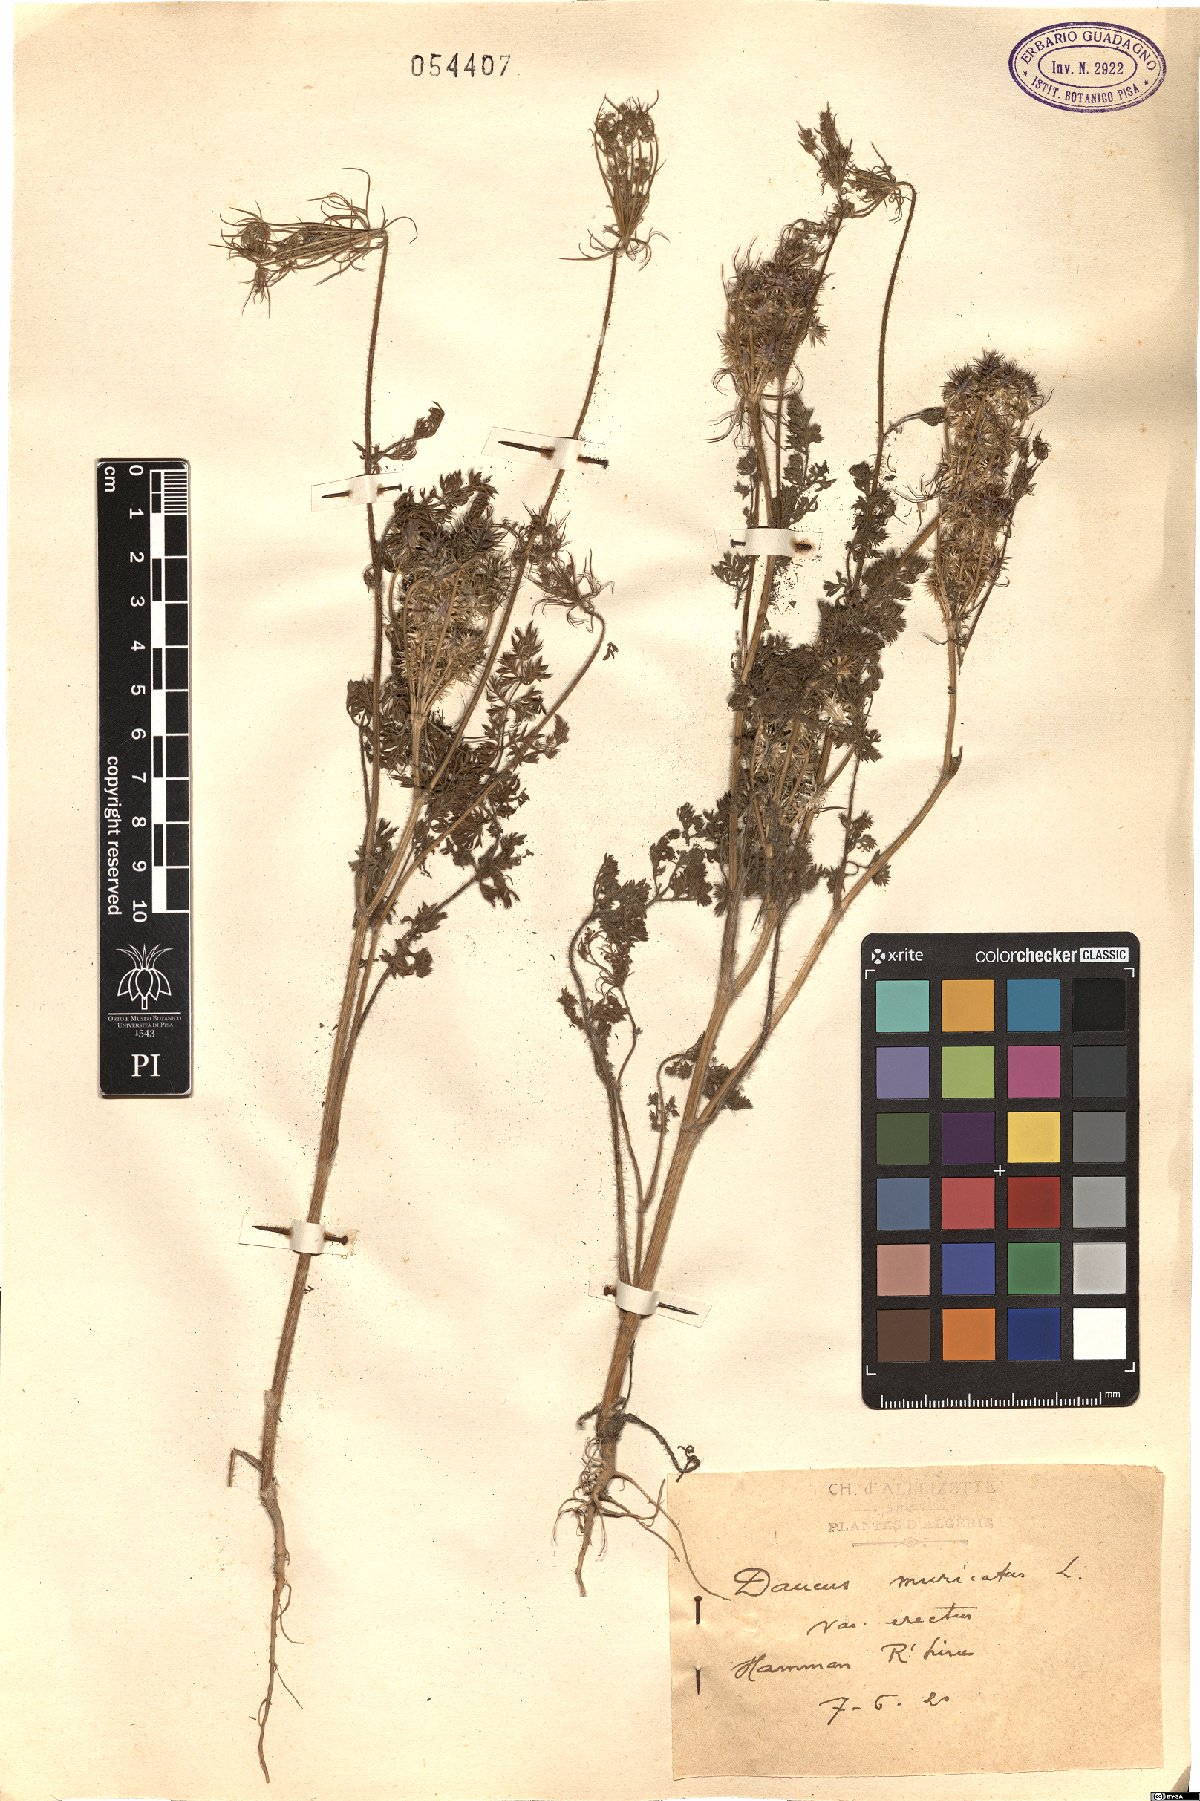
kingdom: Plantae
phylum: Tracheophyta
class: Magnoliopsida
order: Apiales
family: Apiaceae
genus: Daucus
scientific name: Daucus muricatus
